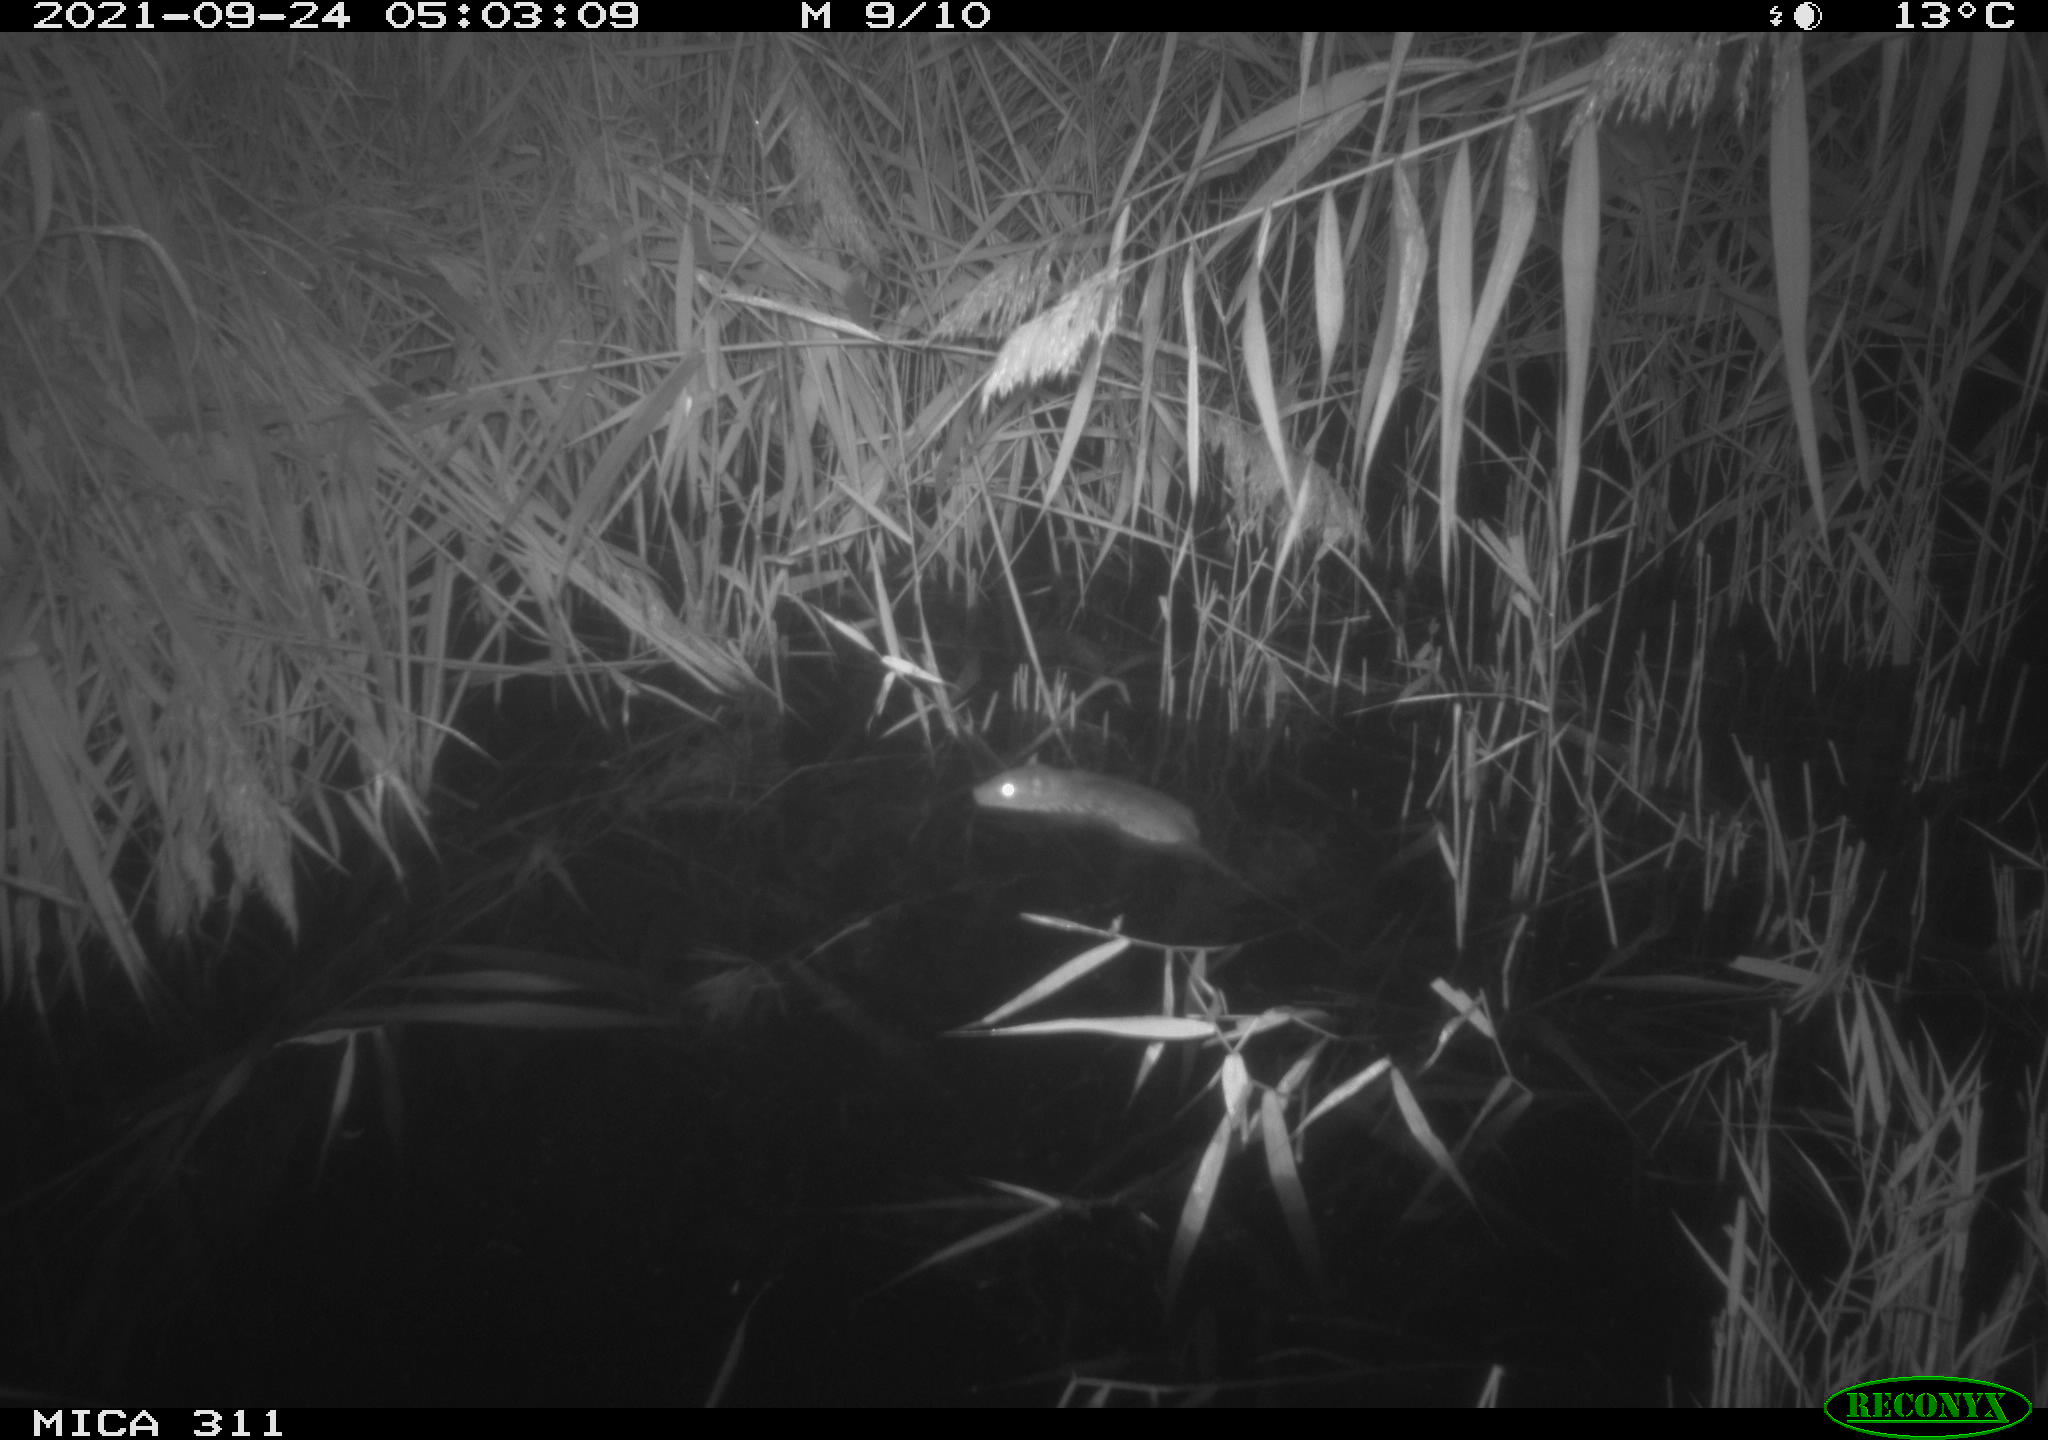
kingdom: Animalia
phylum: Chordata
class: Mammalia
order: Rodentia
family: Muridae
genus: Rattus
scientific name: Rattus norvegicus
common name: Brown rat
